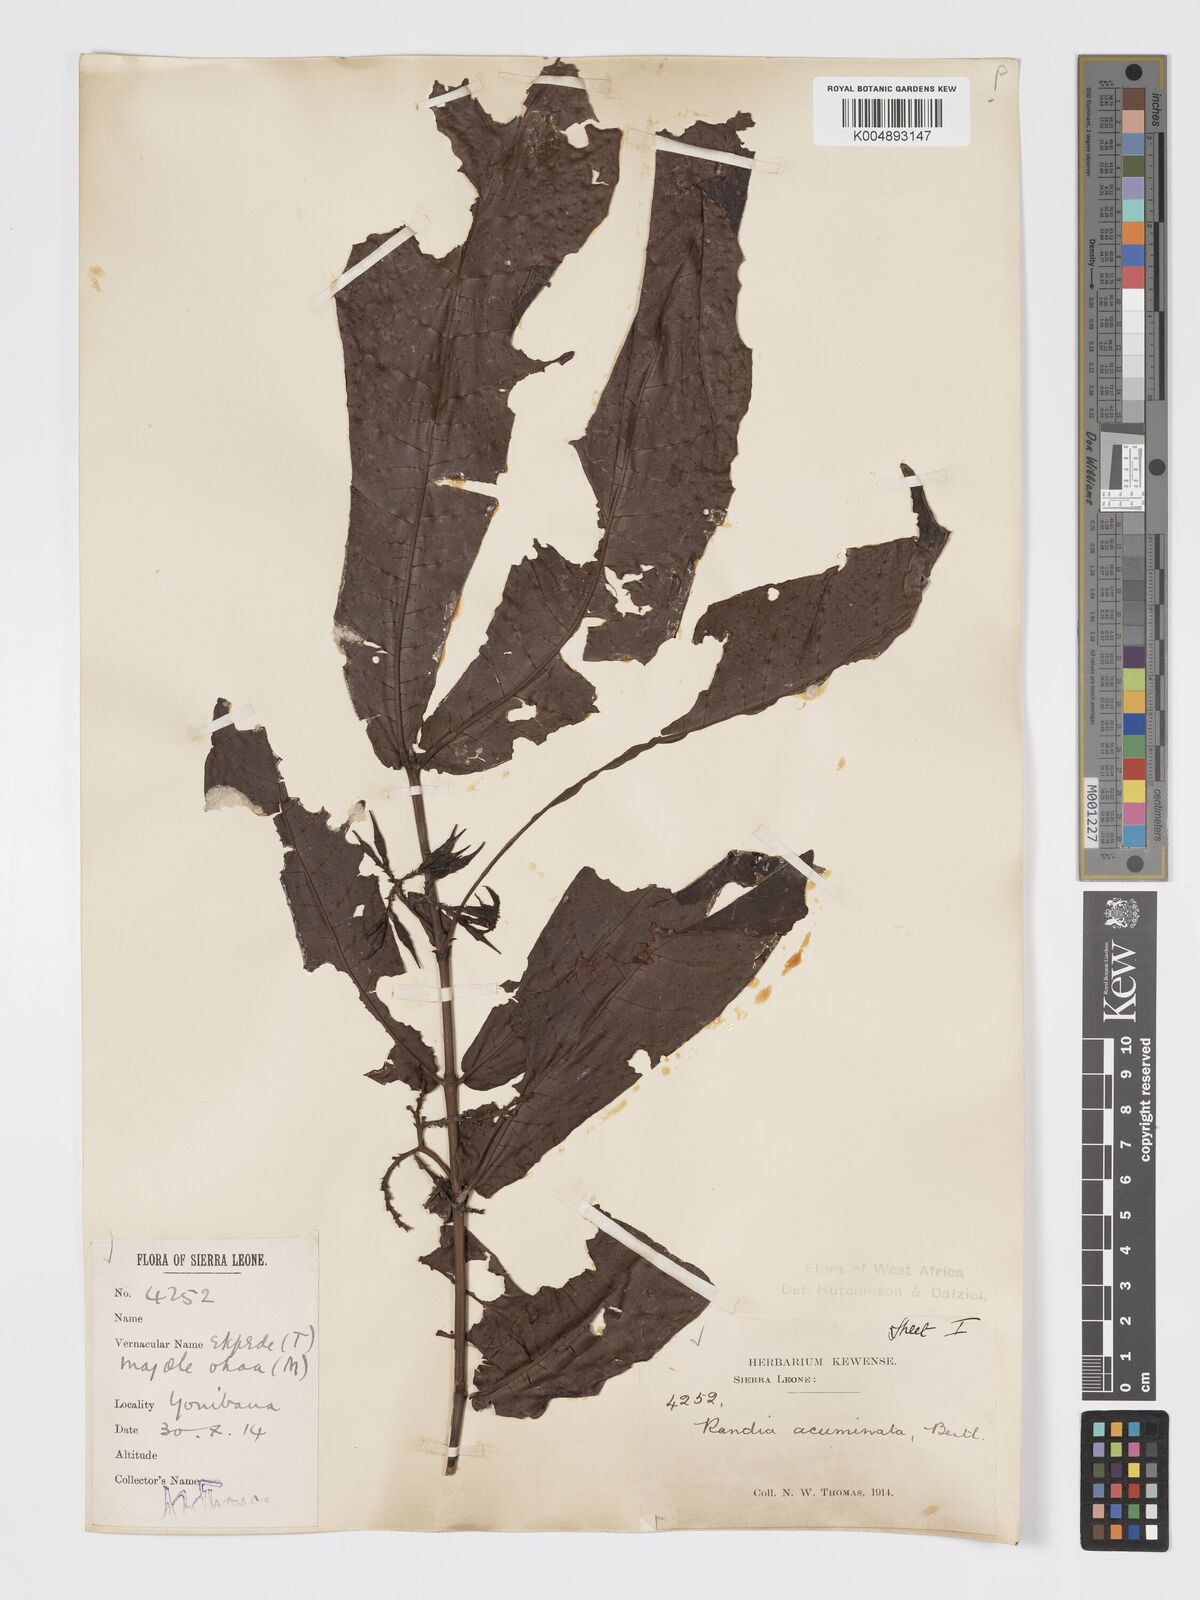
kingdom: Plantae
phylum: Tracheophyta
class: Magnoliopsida
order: Gentianales
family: Rubiaceae
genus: Massularia
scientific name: Massularia acuminata
